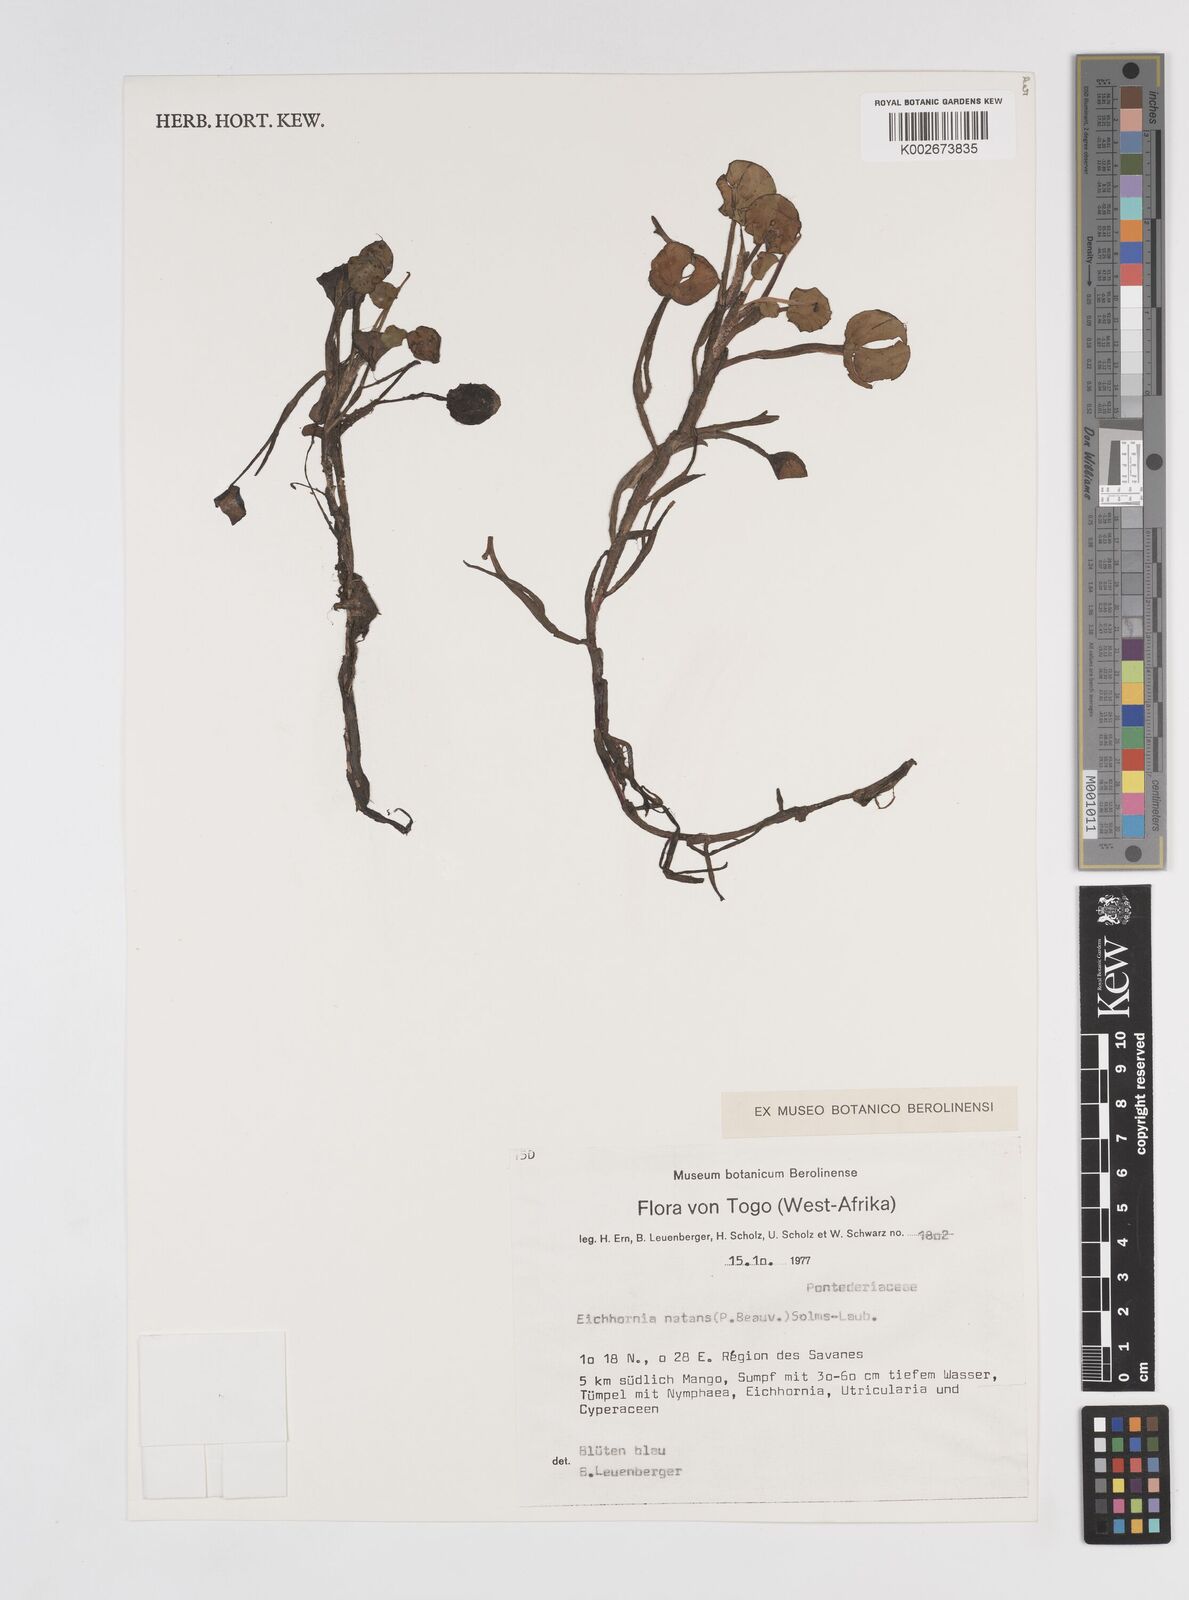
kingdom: Plantae
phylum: Tracheophyta
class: Liliopsida
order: Commelinales
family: Pontederiaceae
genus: Pontederia
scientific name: Pontederia natans
